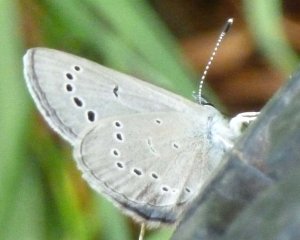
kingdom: Animalia
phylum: Arthropoda
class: Insecta
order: Lepidoptera
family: Lycaenidae
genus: Glaucopsyche
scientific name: Glaucopsyche lygdamus
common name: Silvery Blue
